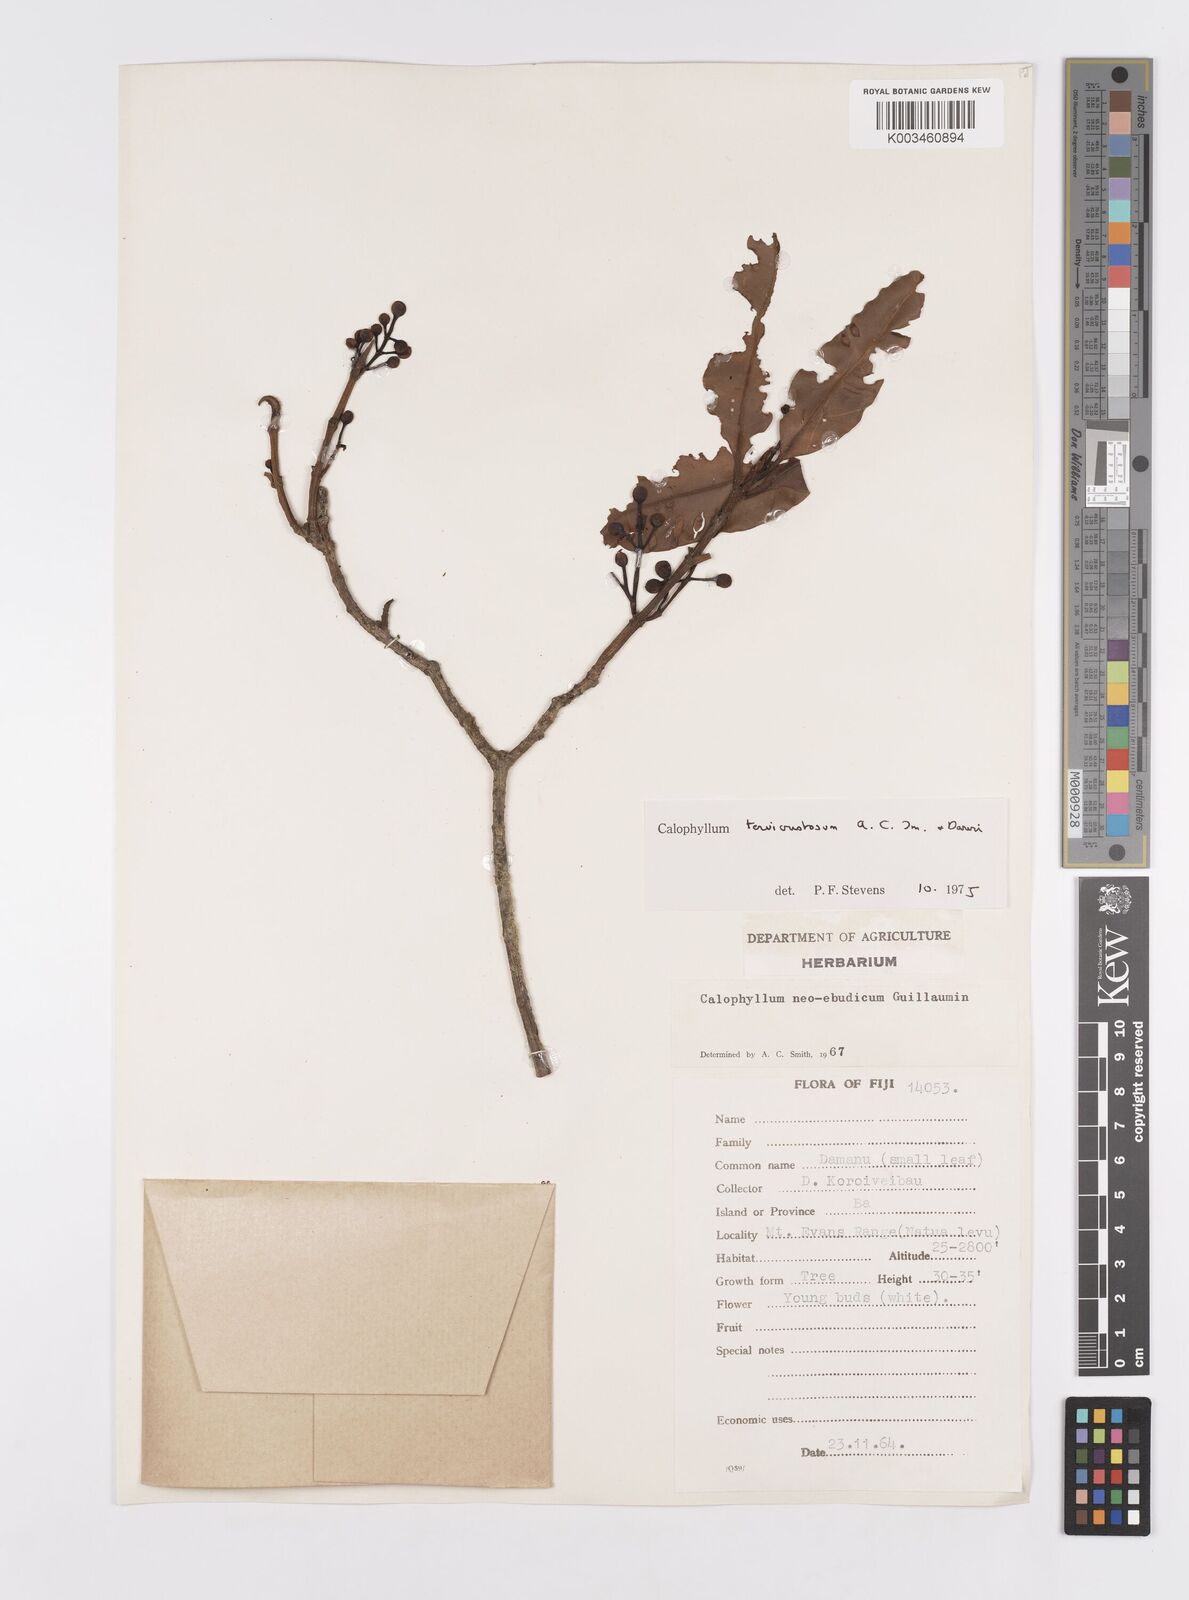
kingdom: Plantae
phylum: Tracheophyta
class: Magnoliopsida
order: Malpighiales
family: Calophyllaceae
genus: Calophyllum
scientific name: Calophyllum vitiense
